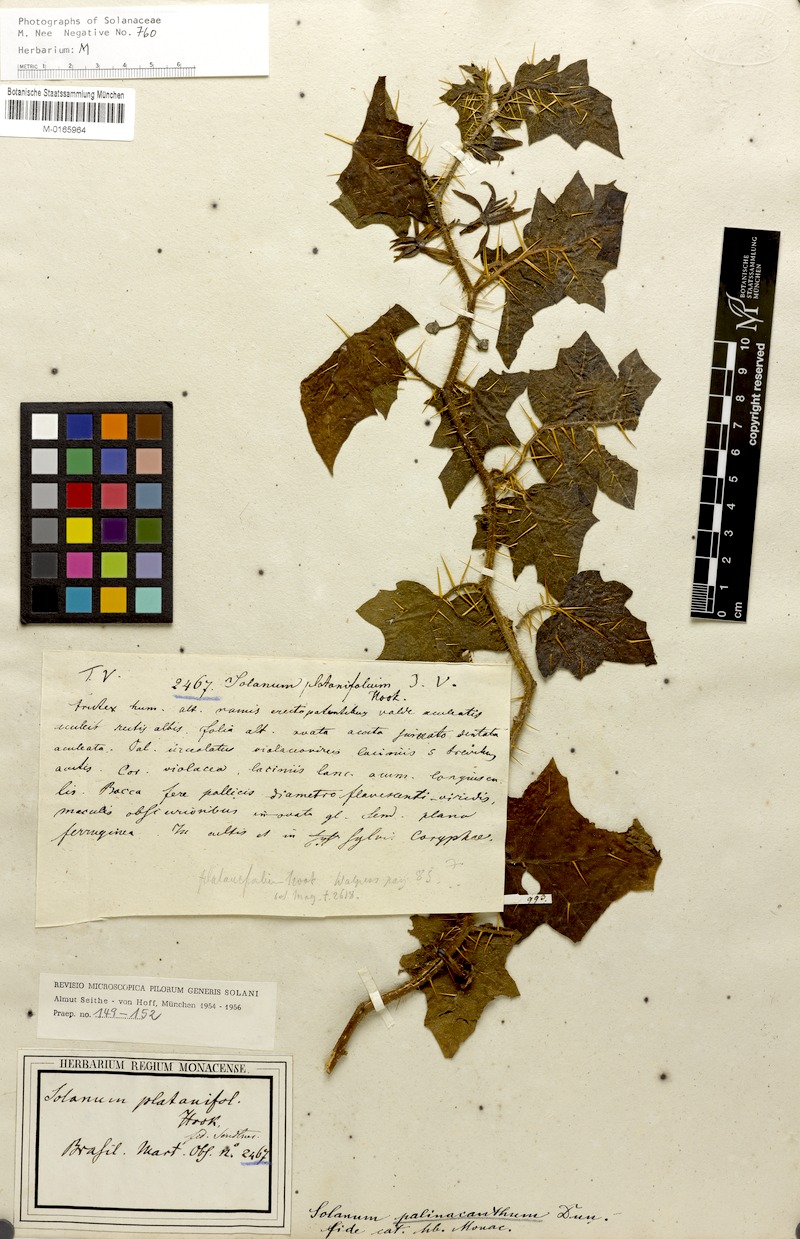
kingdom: Plantae
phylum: Tracheophyta
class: Magnoliopsida
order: Solanales
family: Solanaceae
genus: Solanum
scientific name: Solanum mammosum
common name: Nipple fruit
